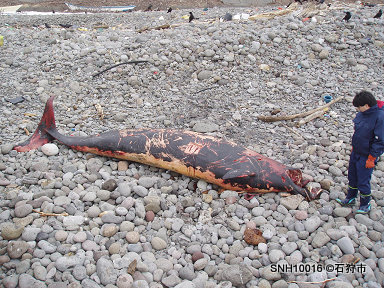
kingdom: Animalia
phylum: Chordata
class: Mammalia
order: Cetacea
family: Hyperoodontidae
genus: Mesoplodon
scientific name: Mesoplodon stejnegeri
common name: Stejneger's beaked whale
